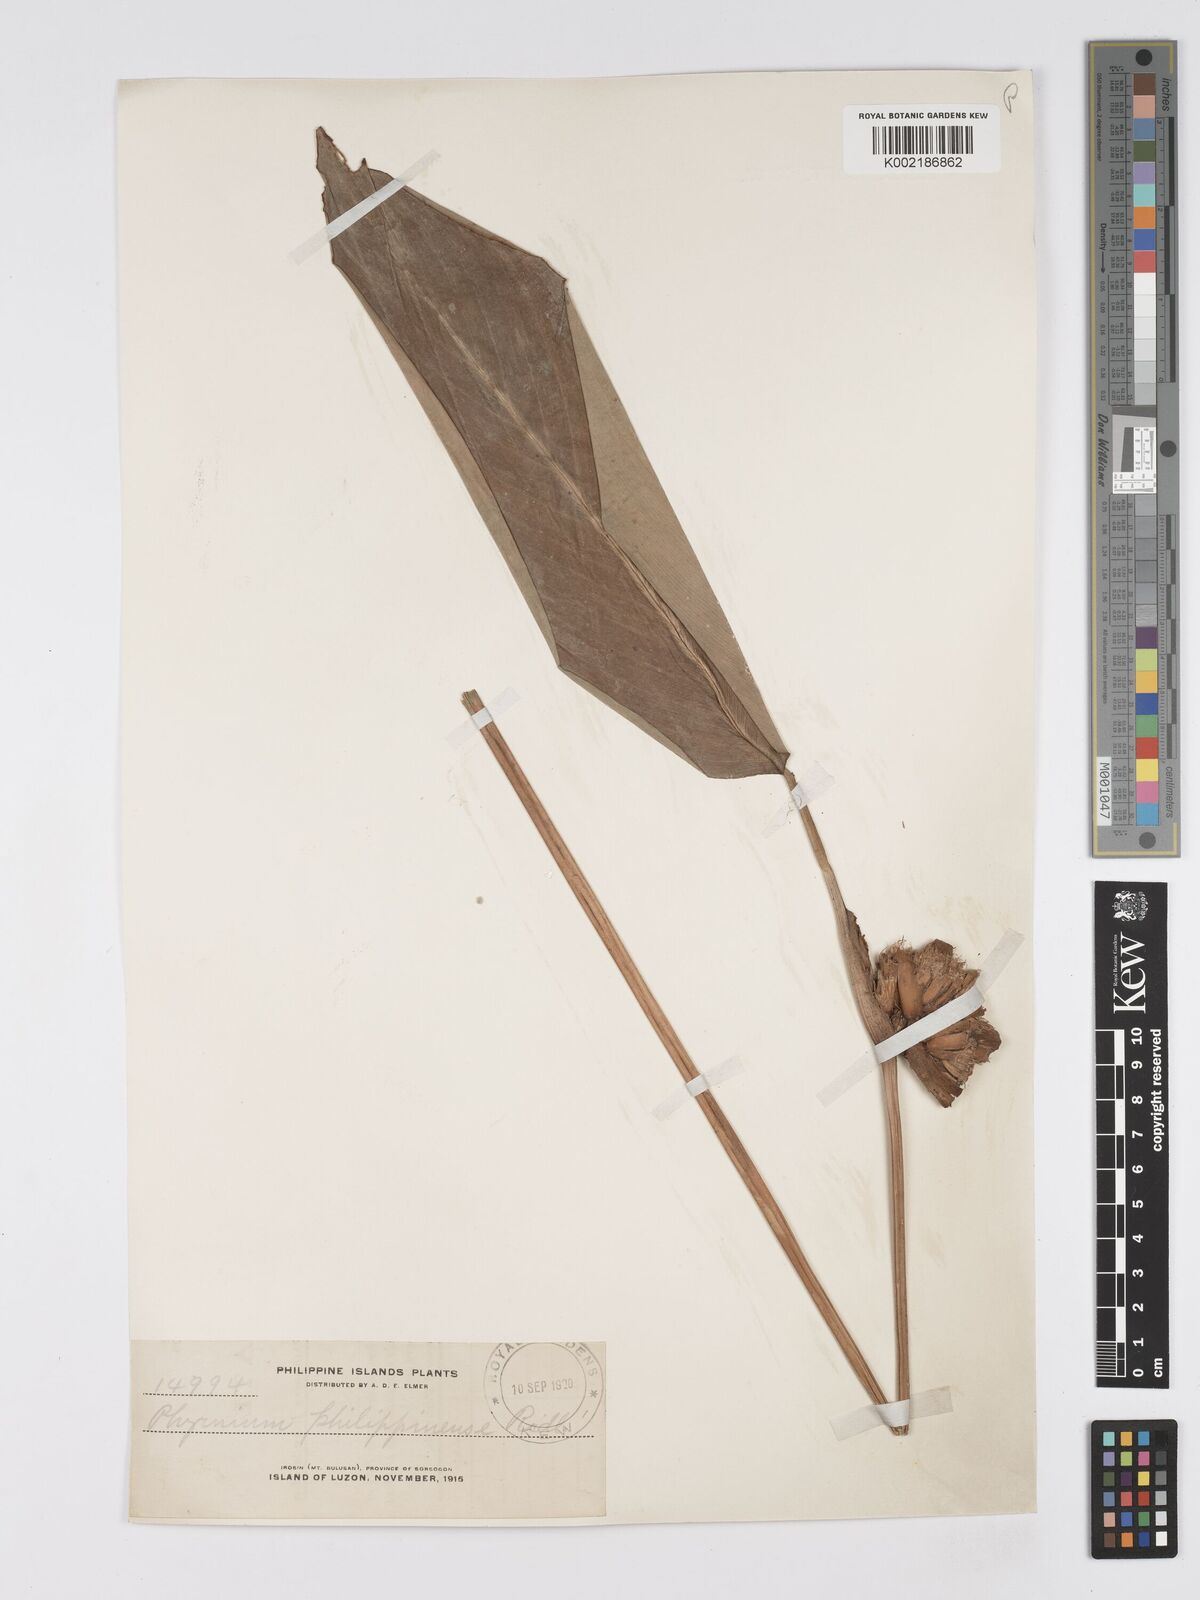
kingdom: Plantae
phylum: Tracheophyta
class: Liliopsida
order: Zingiberales
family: Marantaceae
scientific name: Marantaceae
